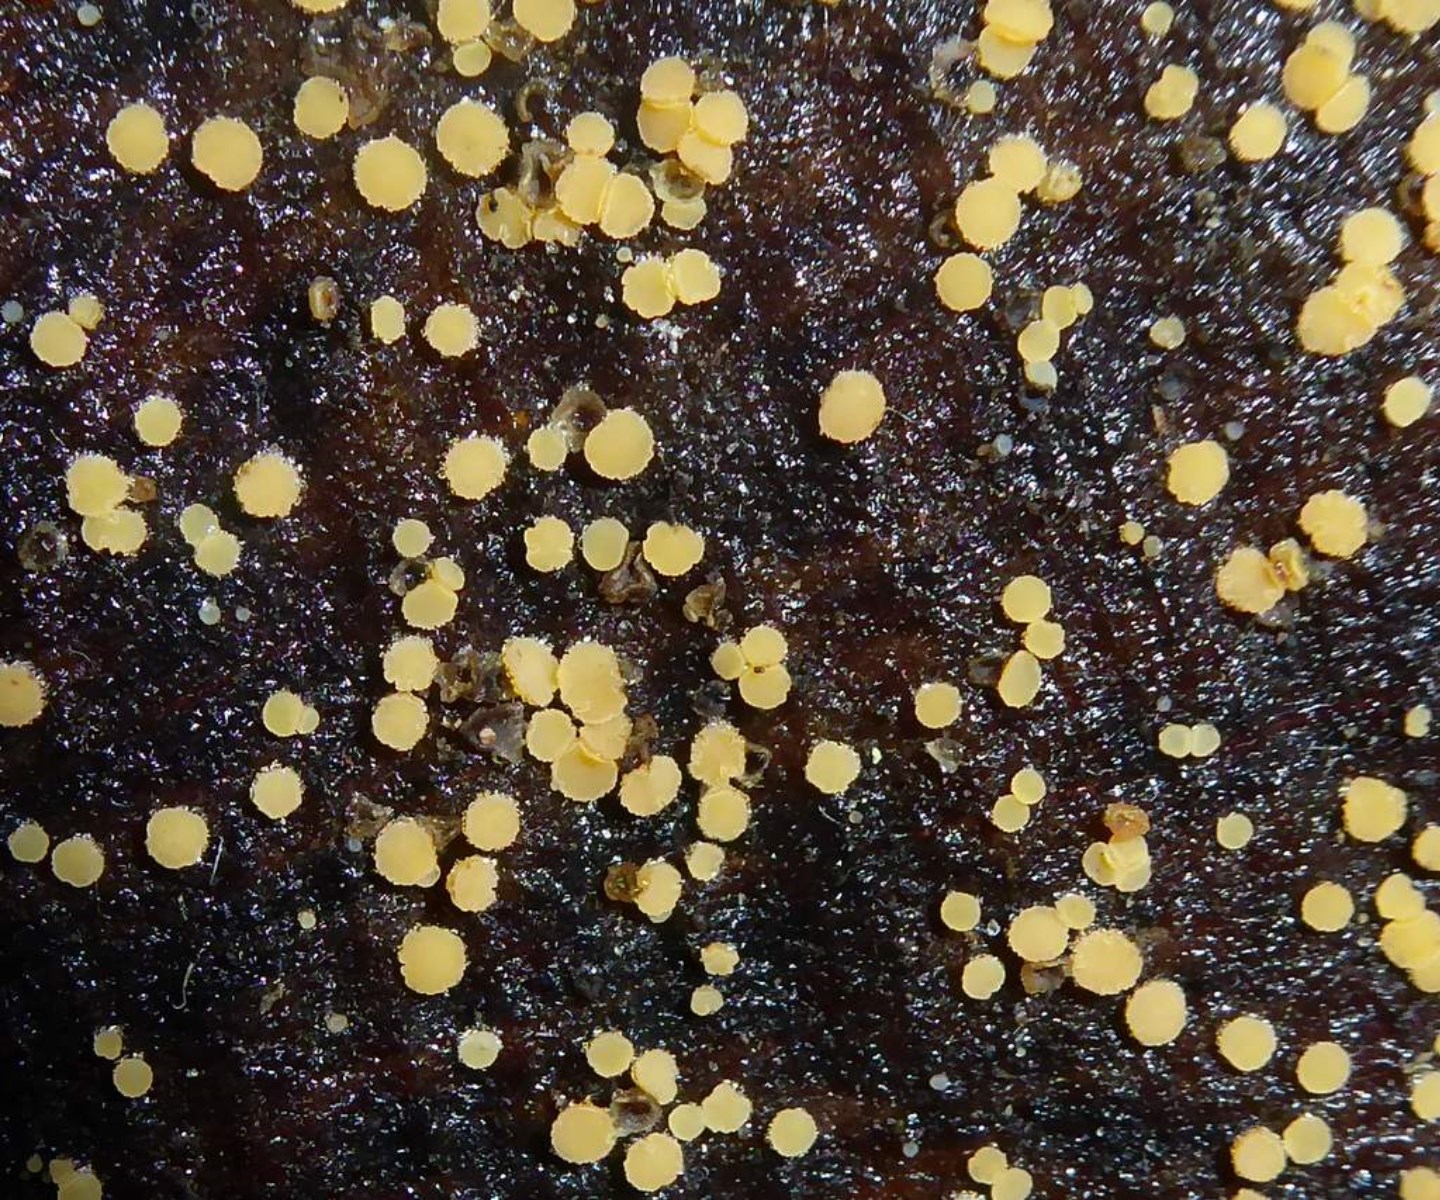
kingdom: Fungi
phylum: Ascomycota
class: Leotiomycetes
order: Helotiales
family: Helotiaceae
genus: Bisporella
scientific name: Bisporella subpallida
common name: lys snitskive
